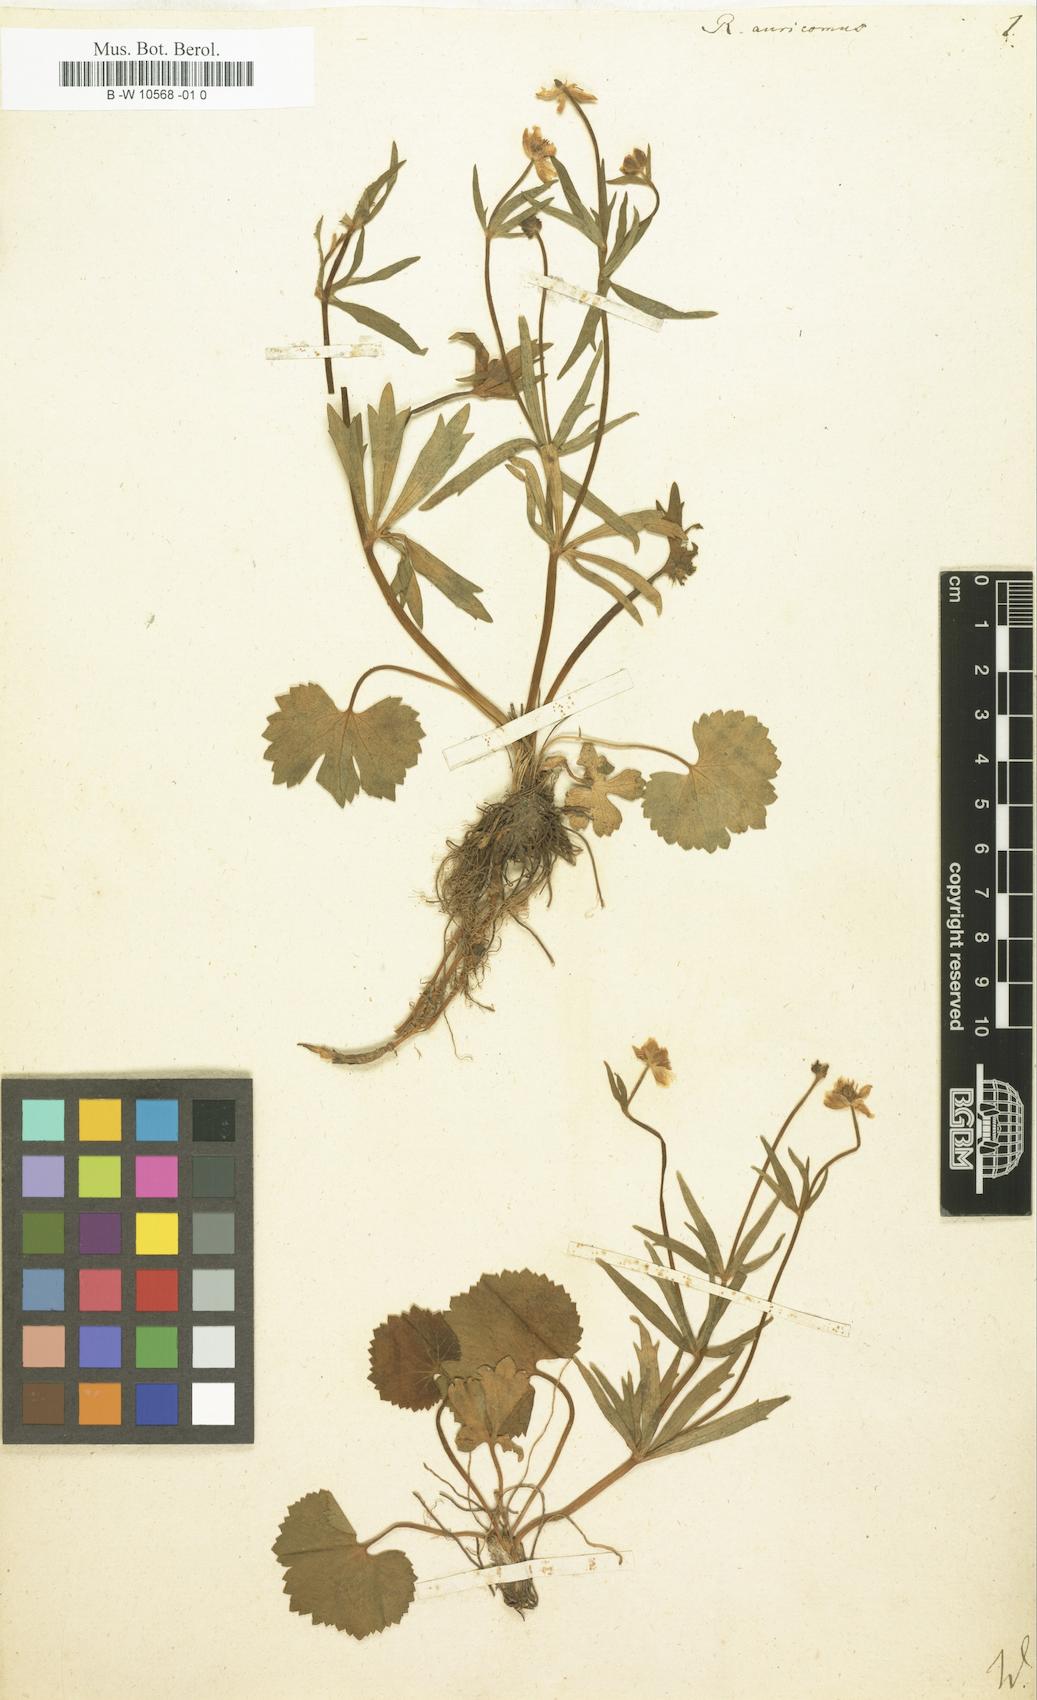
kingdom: Plantae
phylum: Tracheophyta
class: Magnoliopsida
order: Ranunculales
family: Ranunculaceae
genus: Ranunculus
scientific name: Ranunculus auricomus
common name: Goldilocks buttercup
